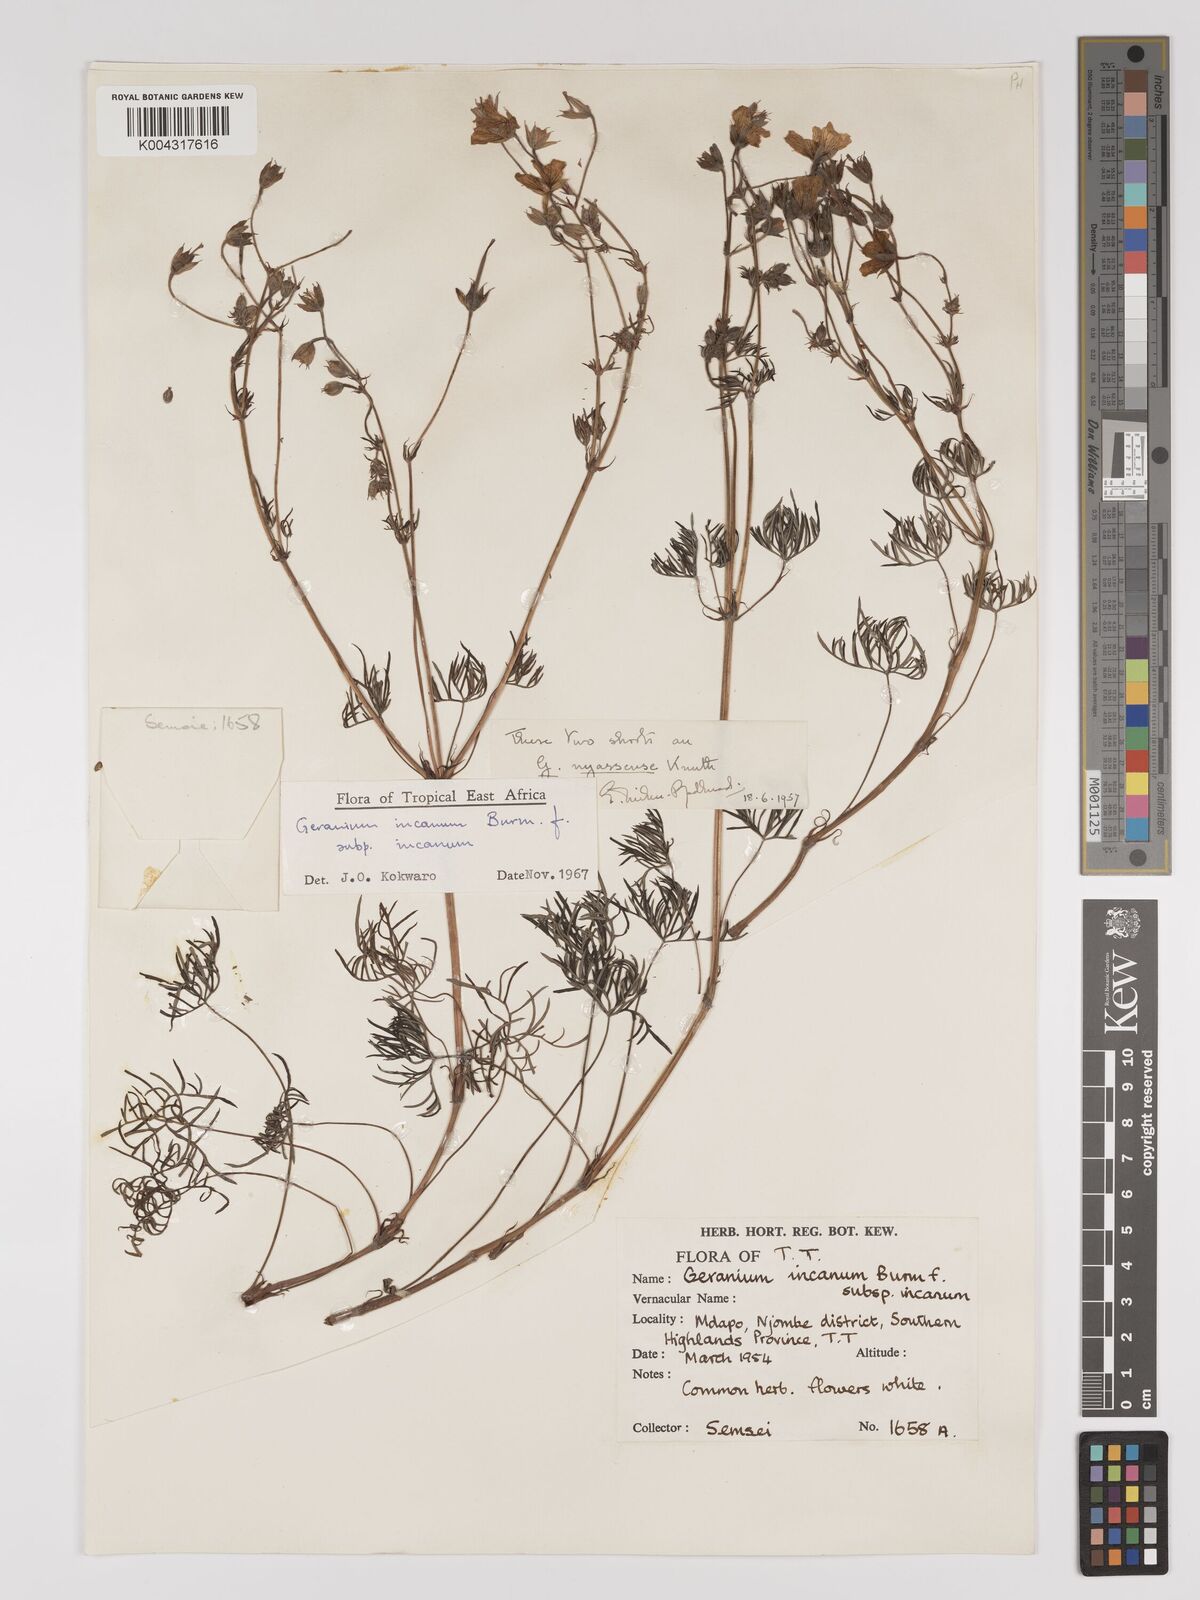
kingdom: Plantae
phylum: Tracheophyta
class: Magnoliopsida
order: Geraniales
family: Geraniaceae
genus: Geranium
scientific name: Geranium incanum
